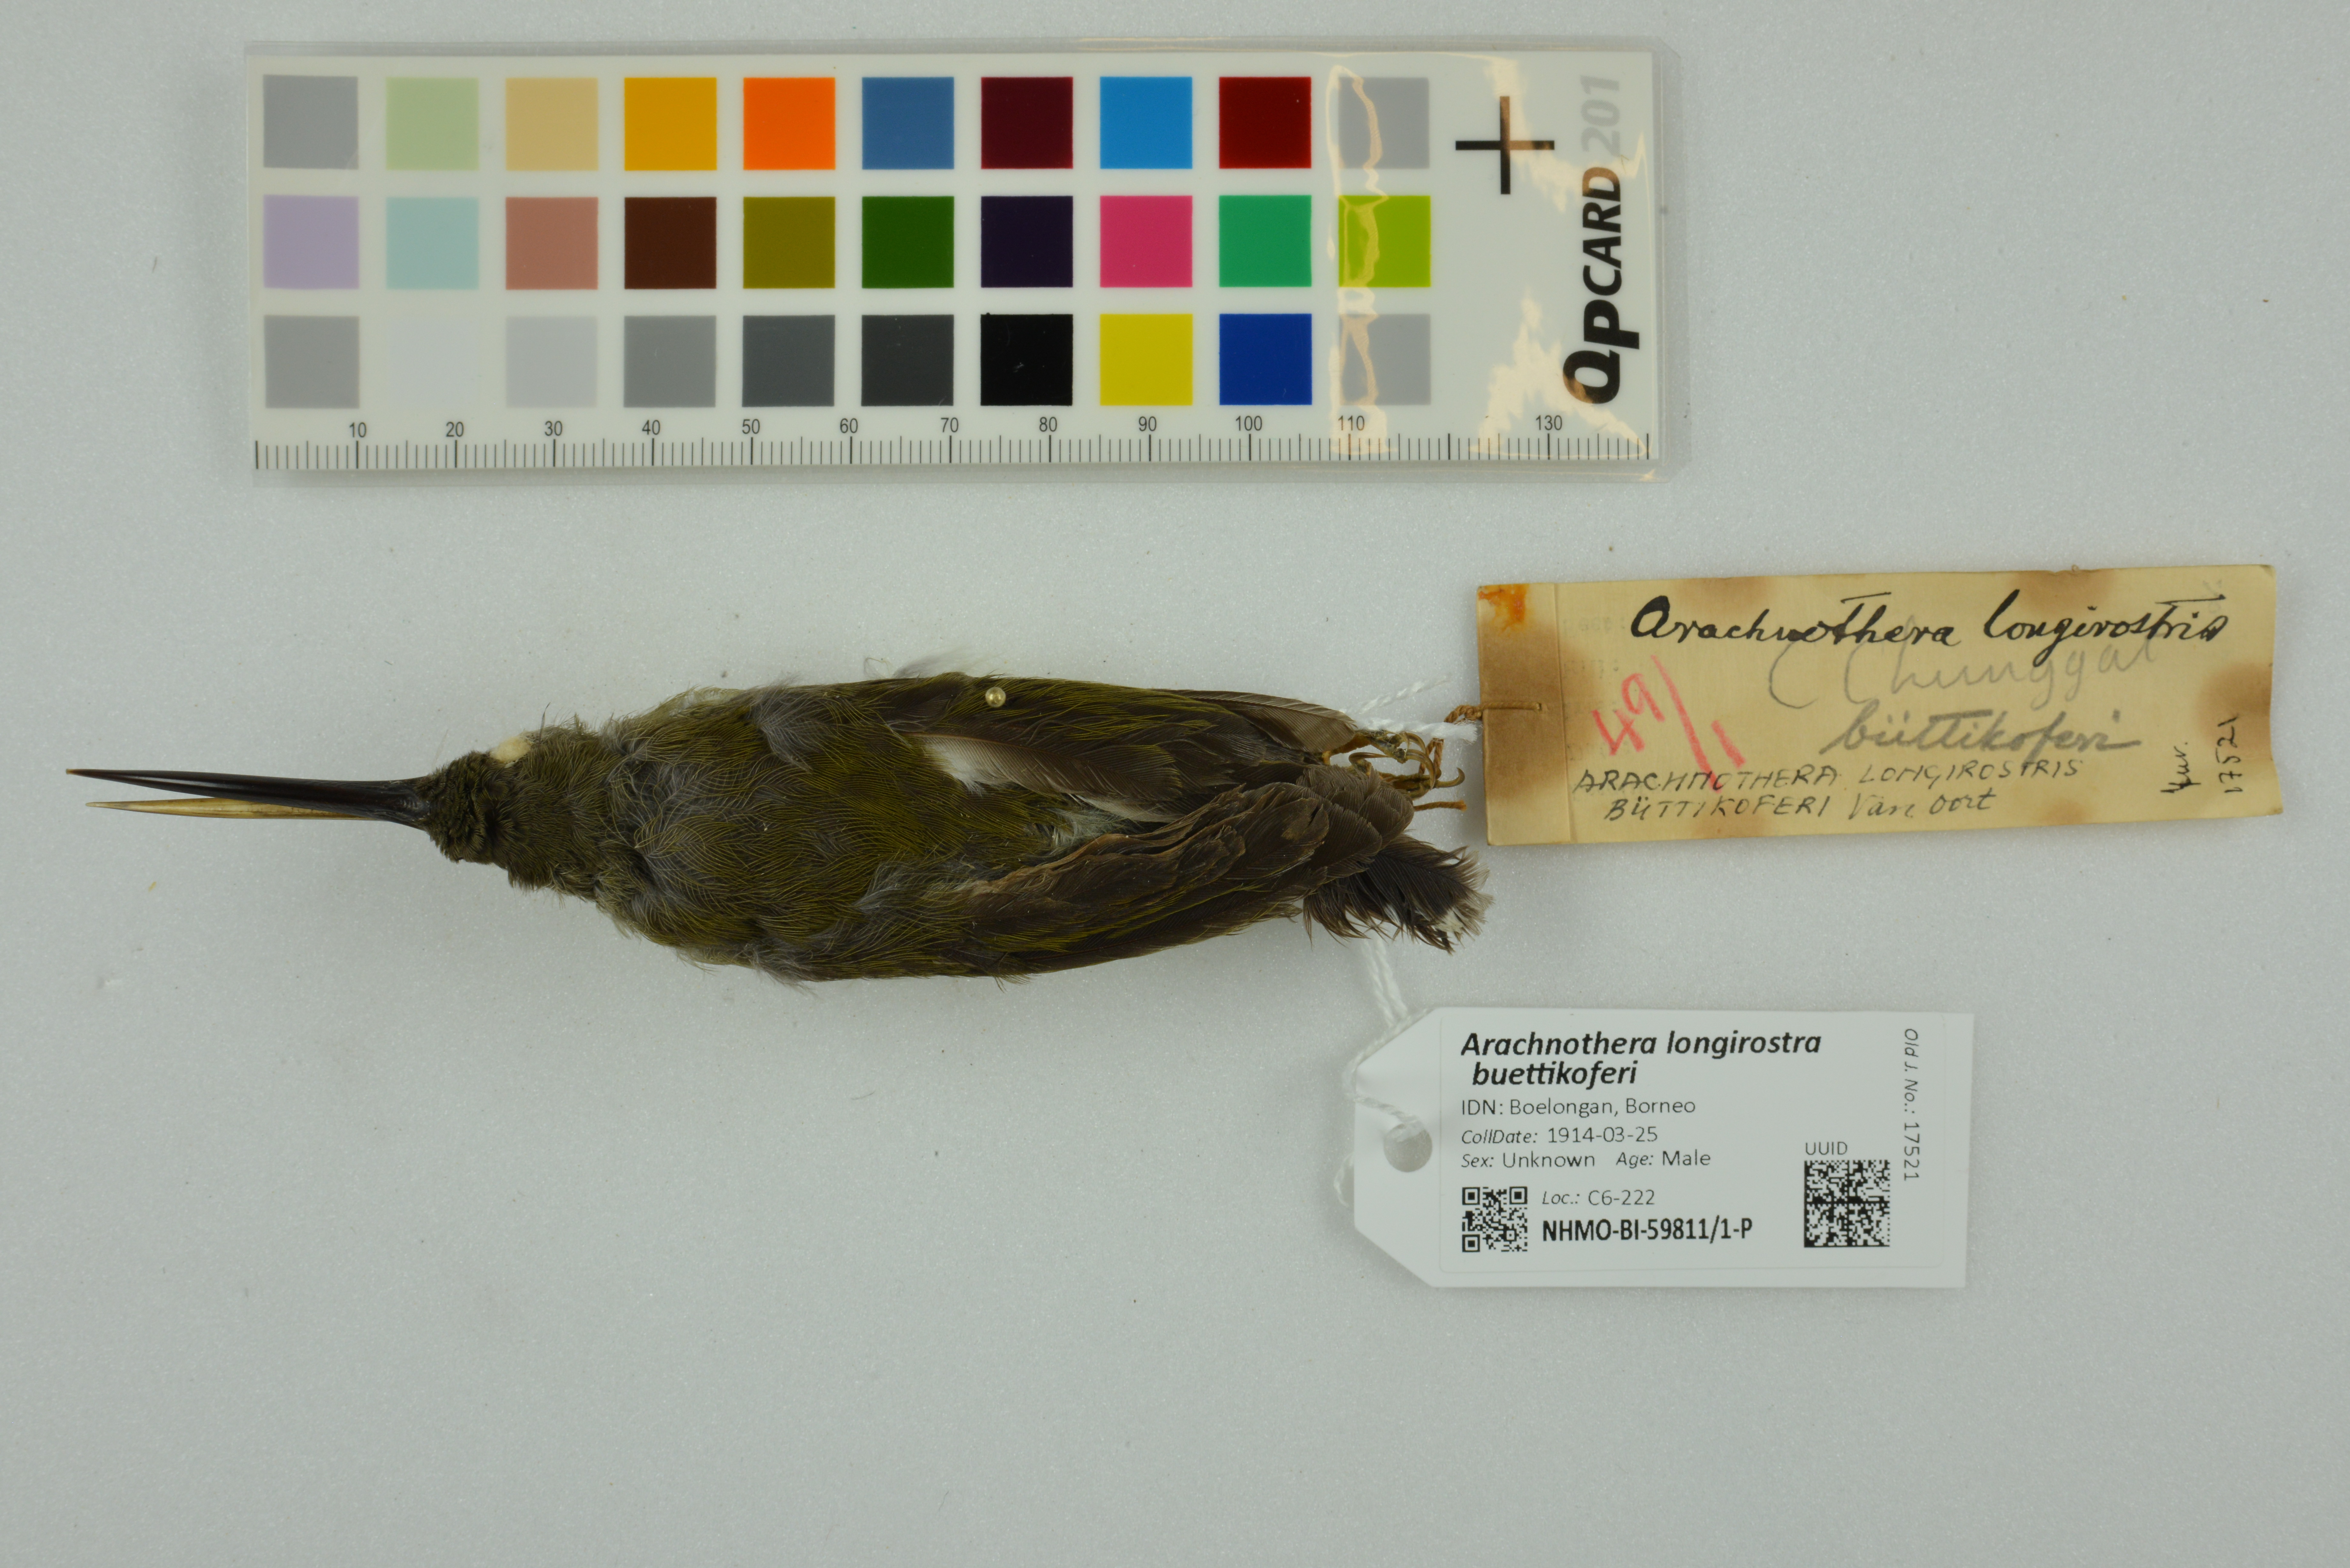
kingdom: Animalia
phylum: Chordata
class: Aves
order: Passeriformes
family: Nectariniidae
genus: Arachnothera
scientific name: Arachnothera longirostra
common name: Little spiderhunter
